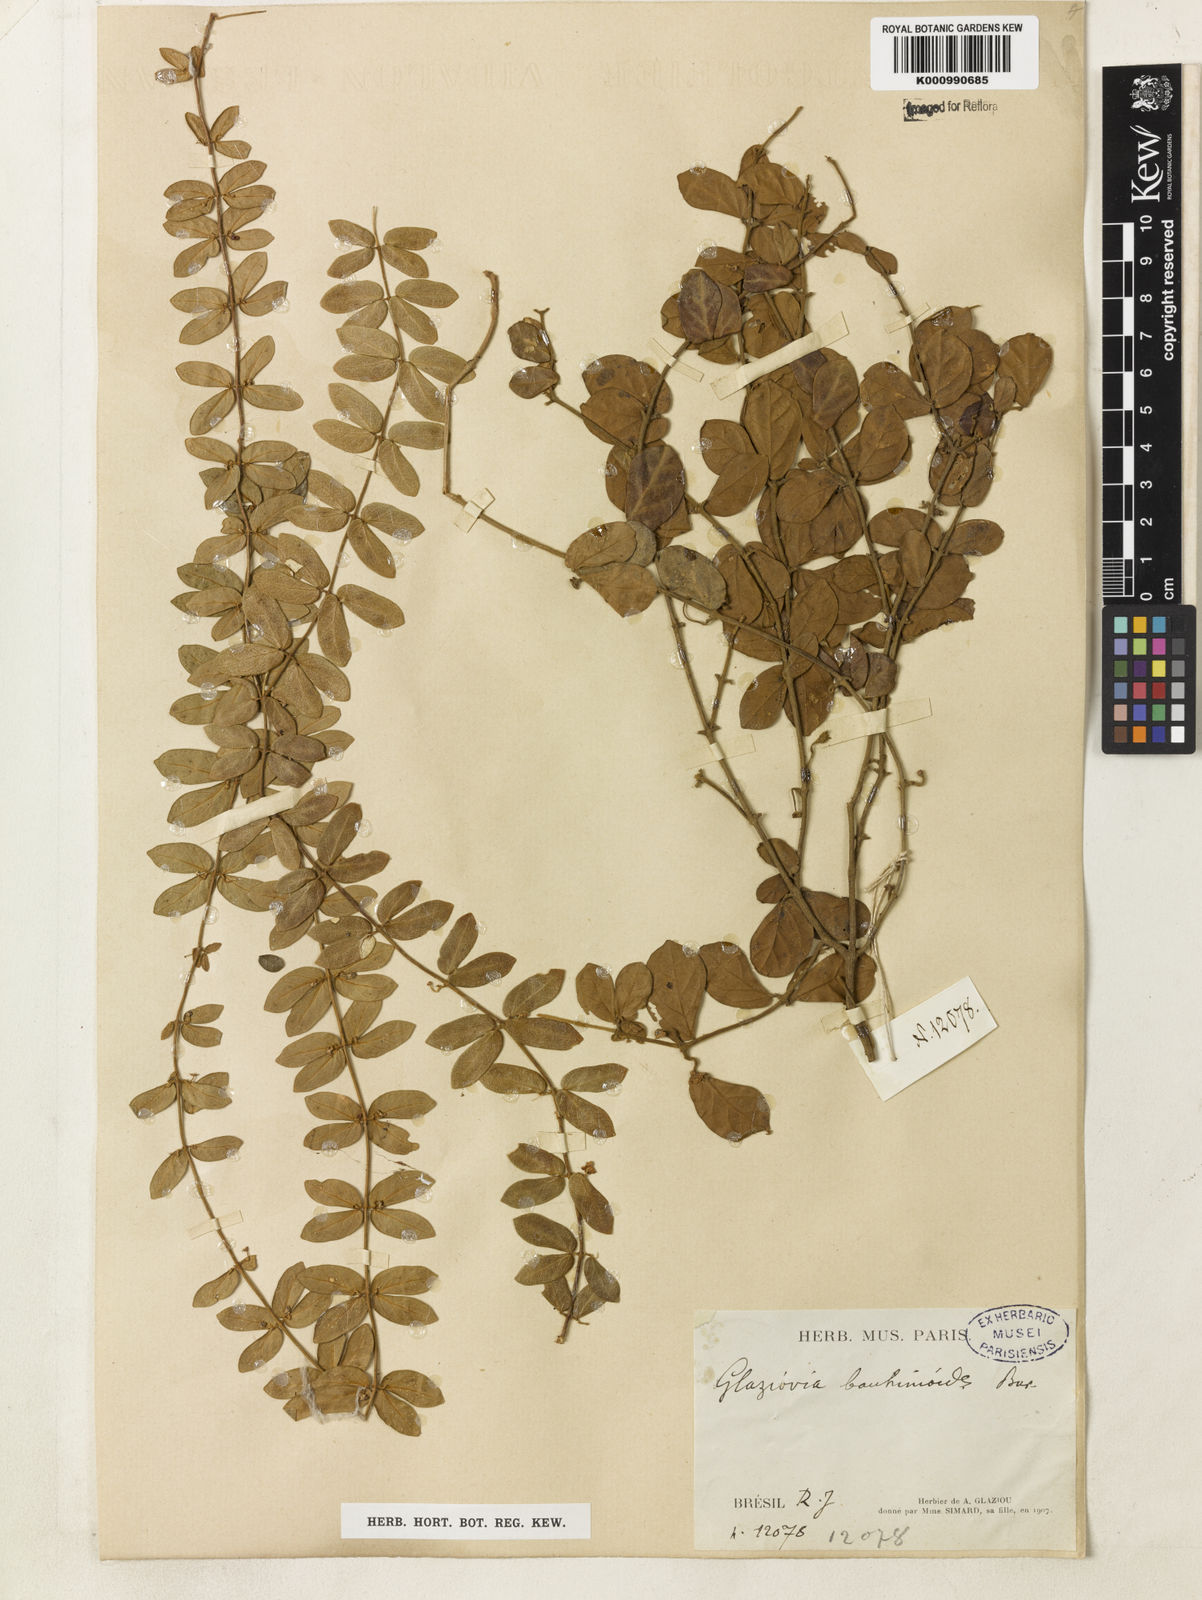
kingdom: Plantae
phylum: Tracheophyta
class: Magnoliopsida
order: Lamiales
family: Bignoniaceae
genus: Amphilophium
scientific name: Amphilophium bauhinioides
